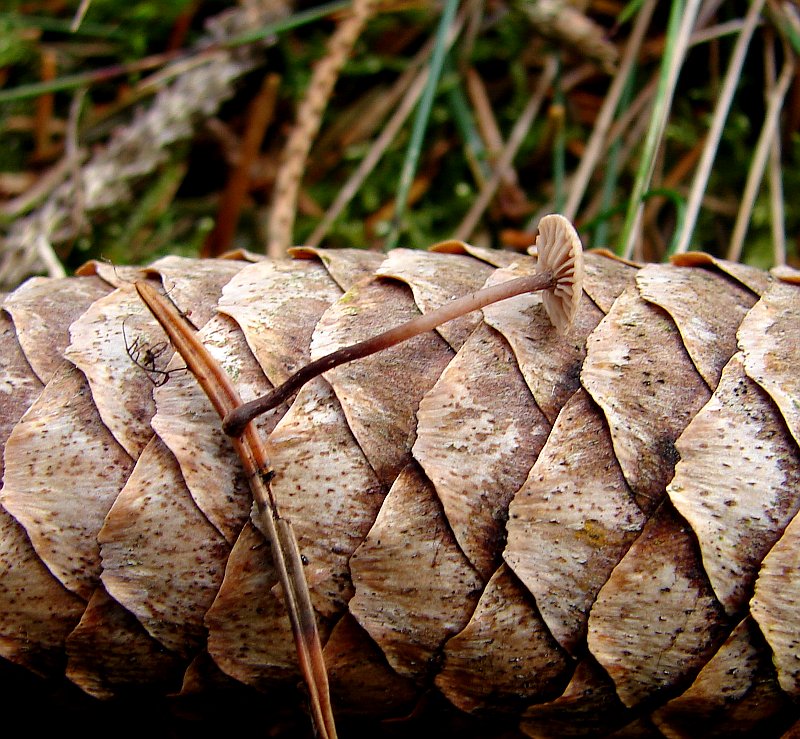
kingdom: Fungi
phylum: Basidiomycota
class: Agaricomycetes
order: Agaricales
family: Omphalotaceae
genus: Paragymnopus
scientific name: Paragymnopus perforans
